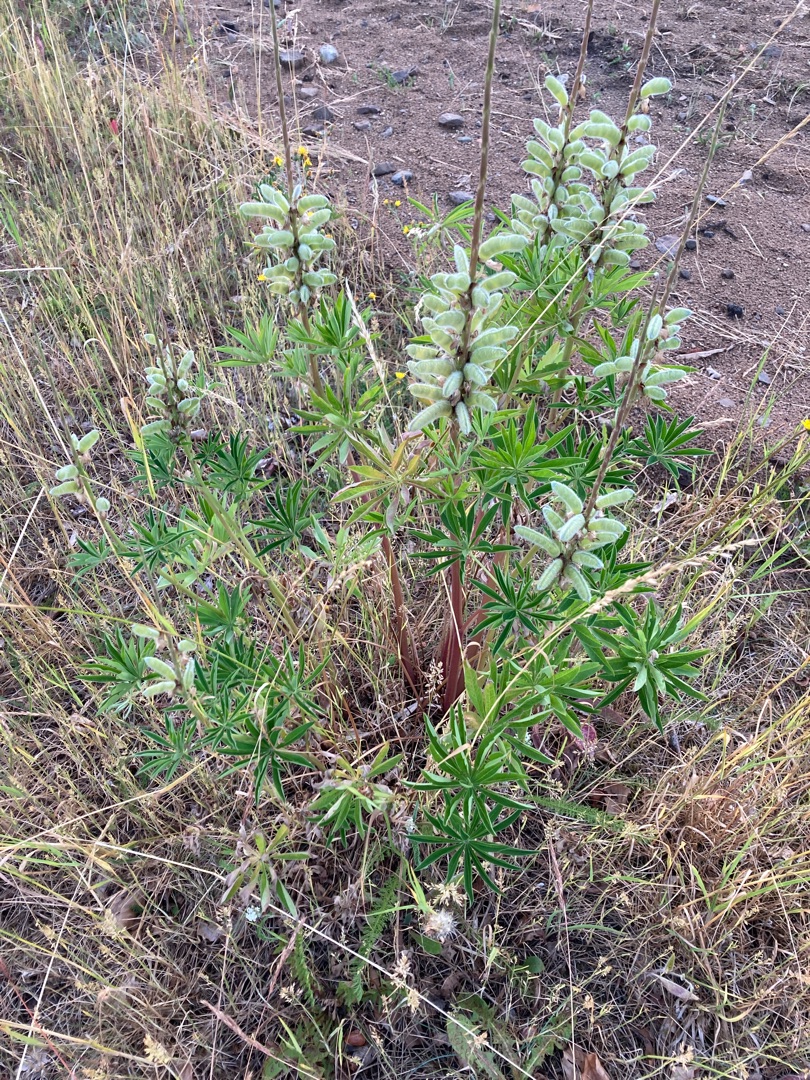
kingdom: Plantae
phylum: Tracheophyta
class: Magnoliopsida
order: Fabales
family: Fabaceae
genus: Lupinus
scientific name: Lupinus polyphyllus
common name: Mangebladet lupin
